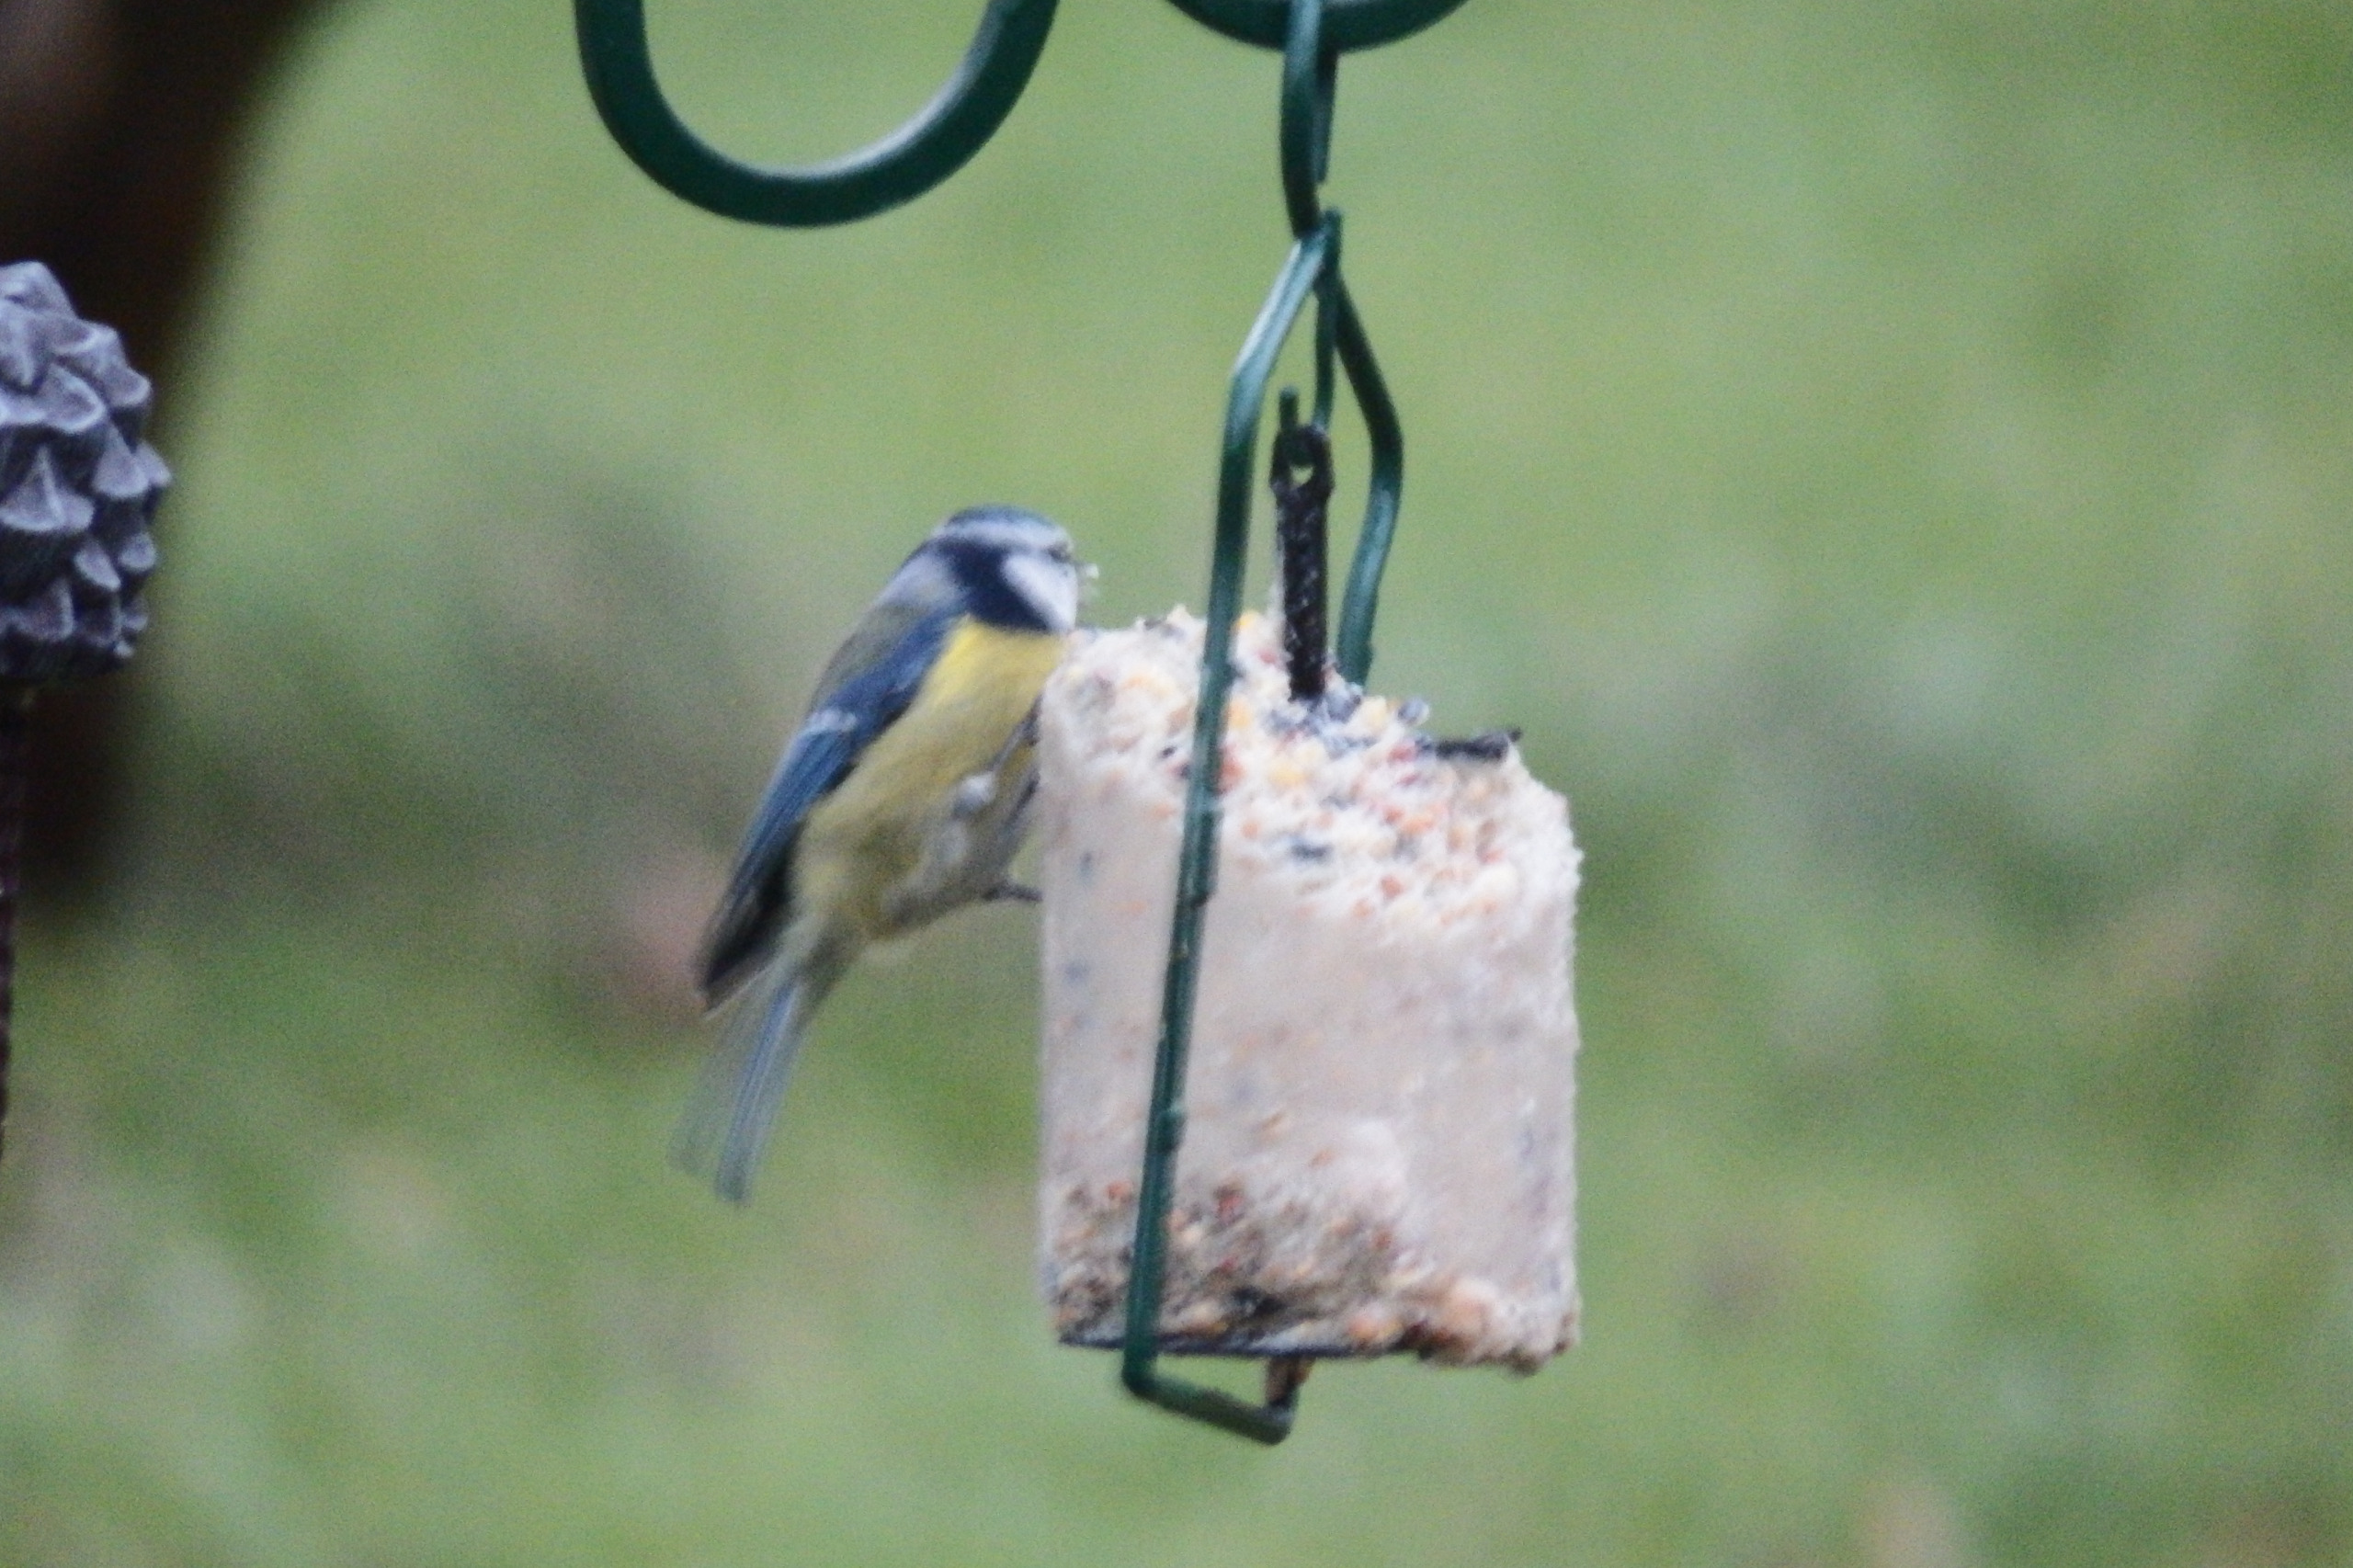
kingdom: Animalia
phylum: Chordata
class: Aves
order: Passeriformes
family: Paridae
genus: Cyanistes
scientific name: Cyanistes caeruleus
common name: Blåmejse
